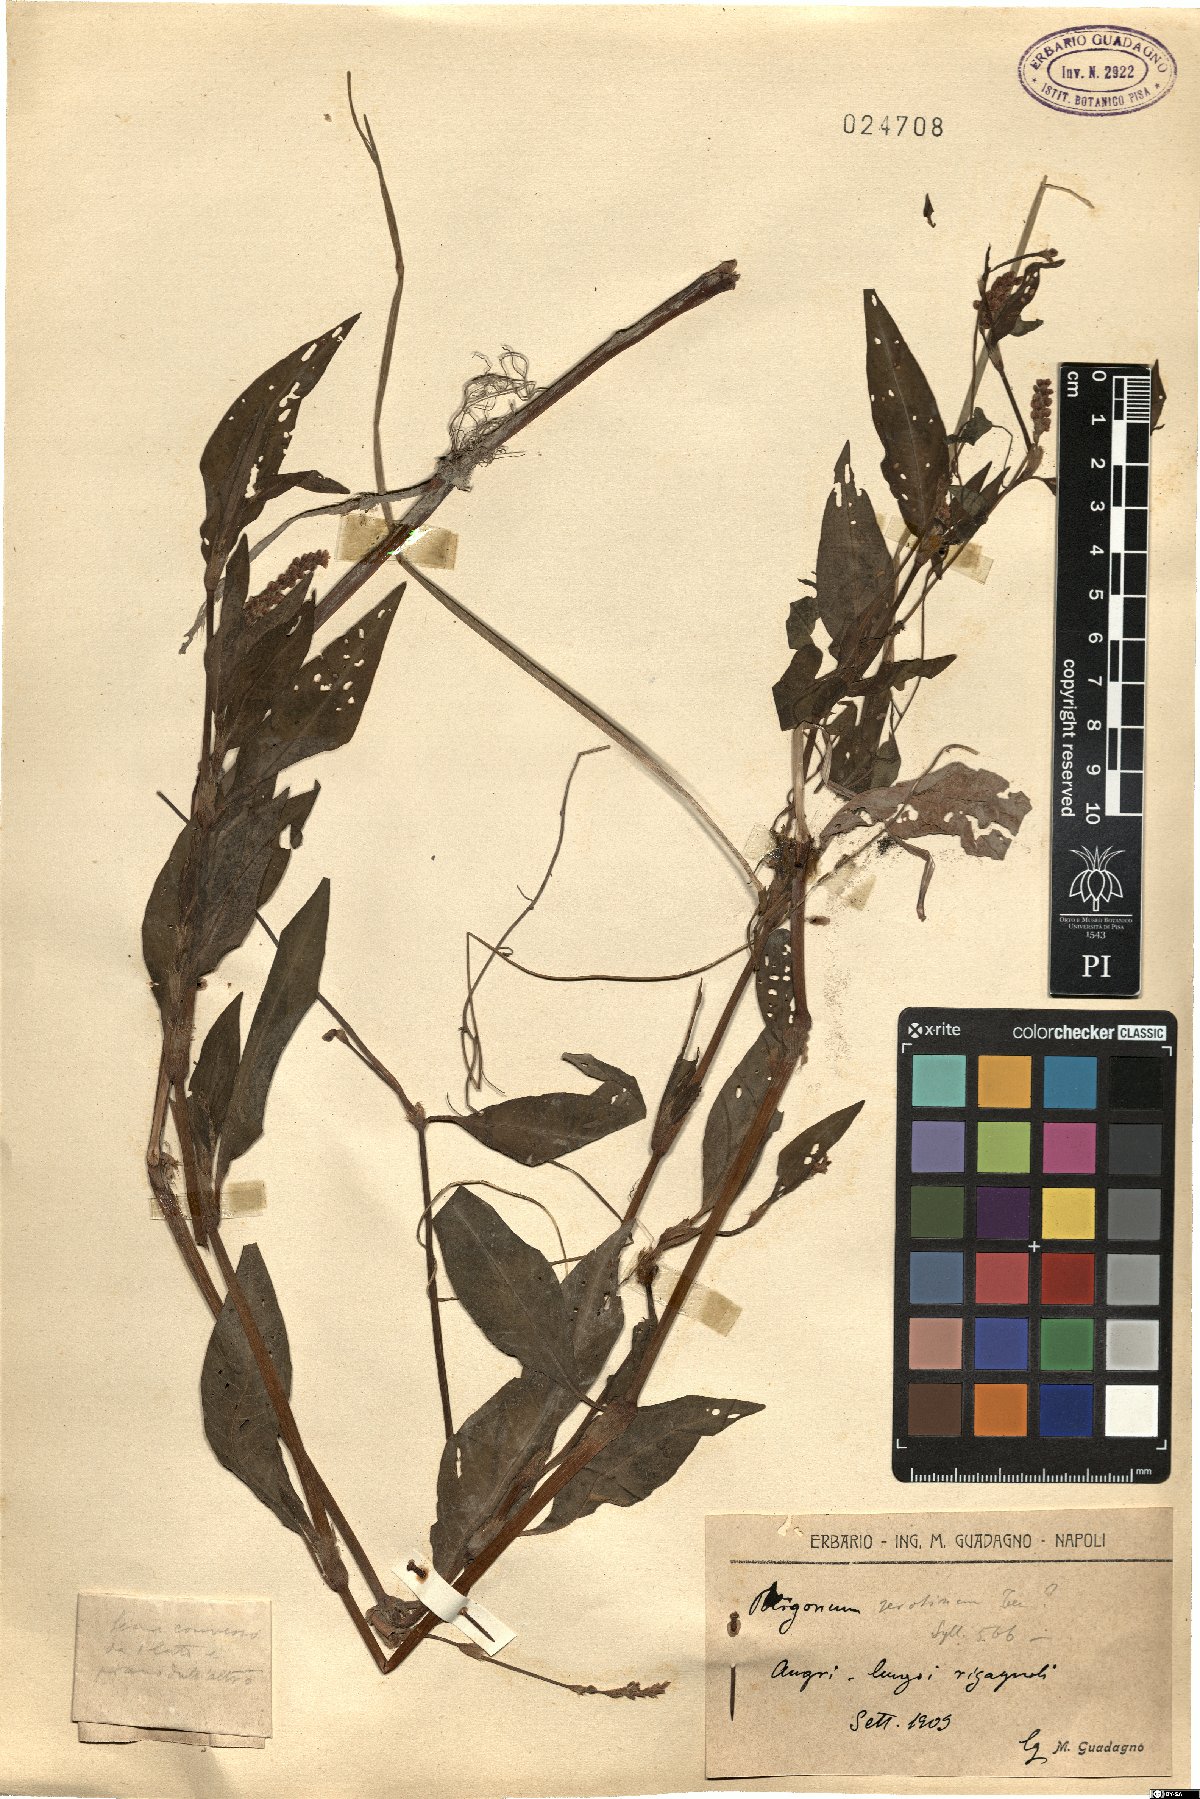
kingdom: Plantae
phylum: Tracheophyta
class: Magnoliopsida
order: Caryophyllales
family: Polygonaceae
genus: Persicaria
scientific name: Persicaria maculosa
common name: Redshank
